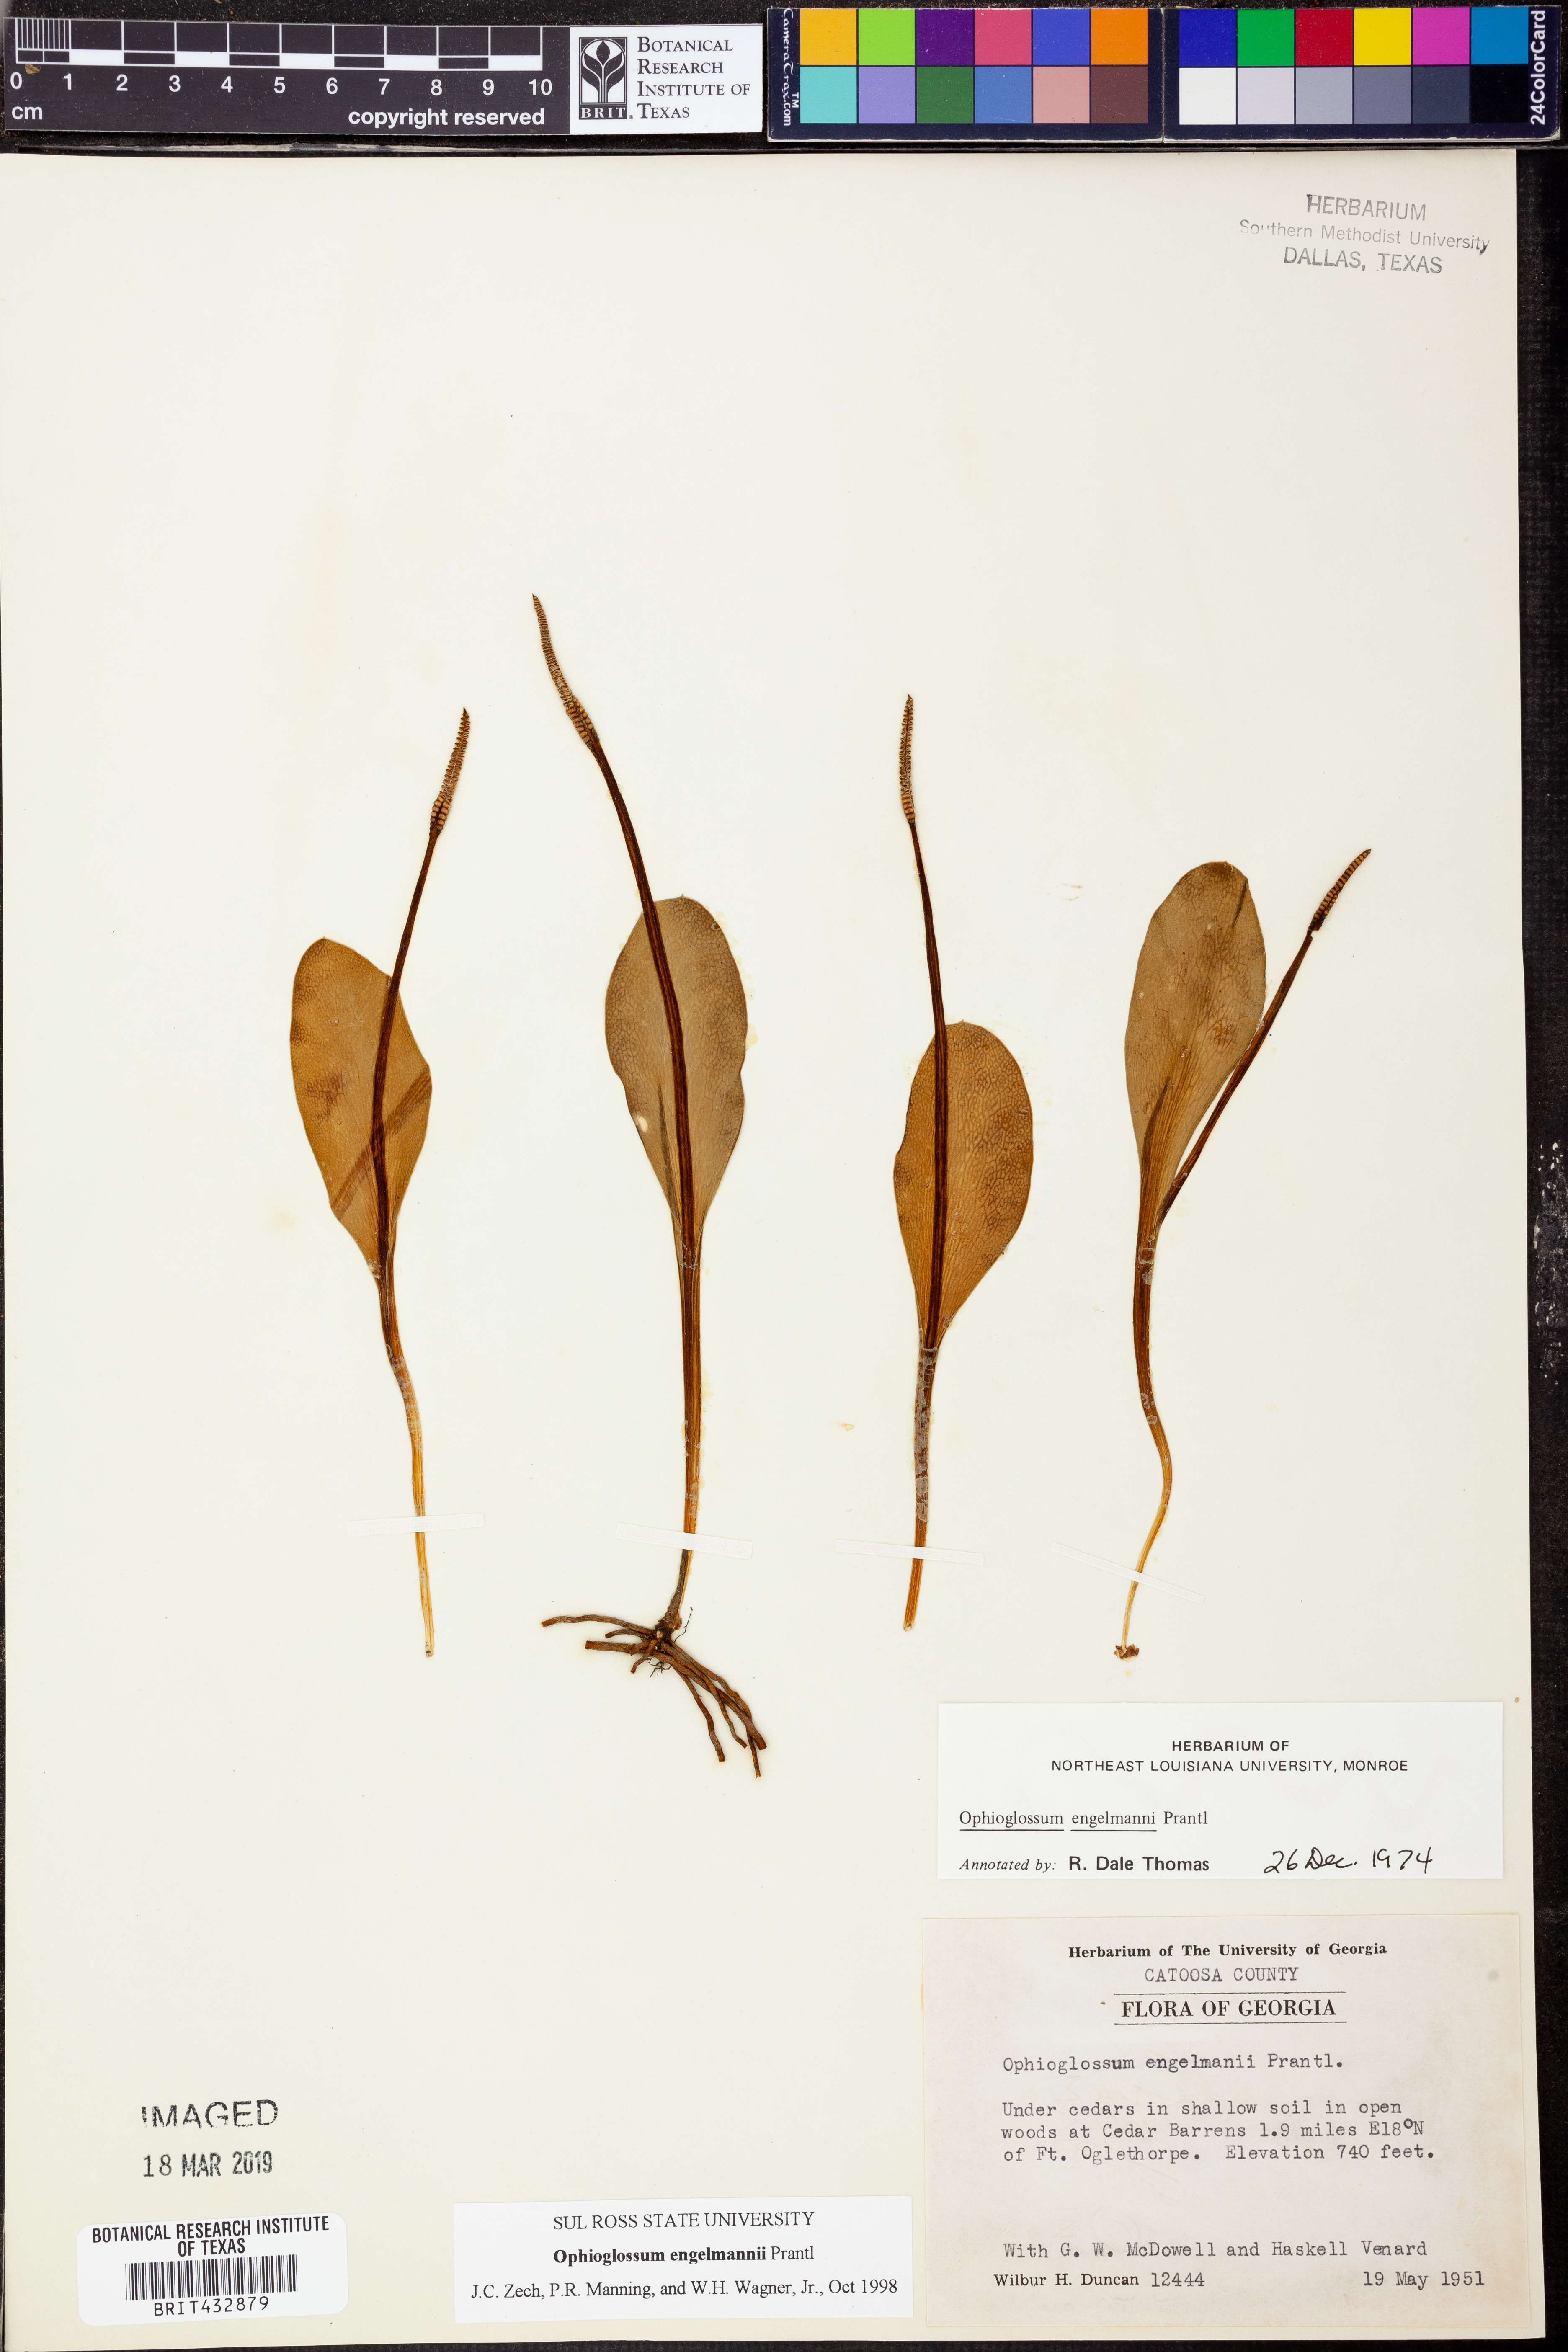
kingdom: Plantae
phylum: Tracheophyta
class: Polypodiopsida
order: Ophioglossales
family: Ophioglossaceae
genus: Ophioglossum
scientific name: Ophioglossum engelmannii
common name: Limestone adder's-tongue
